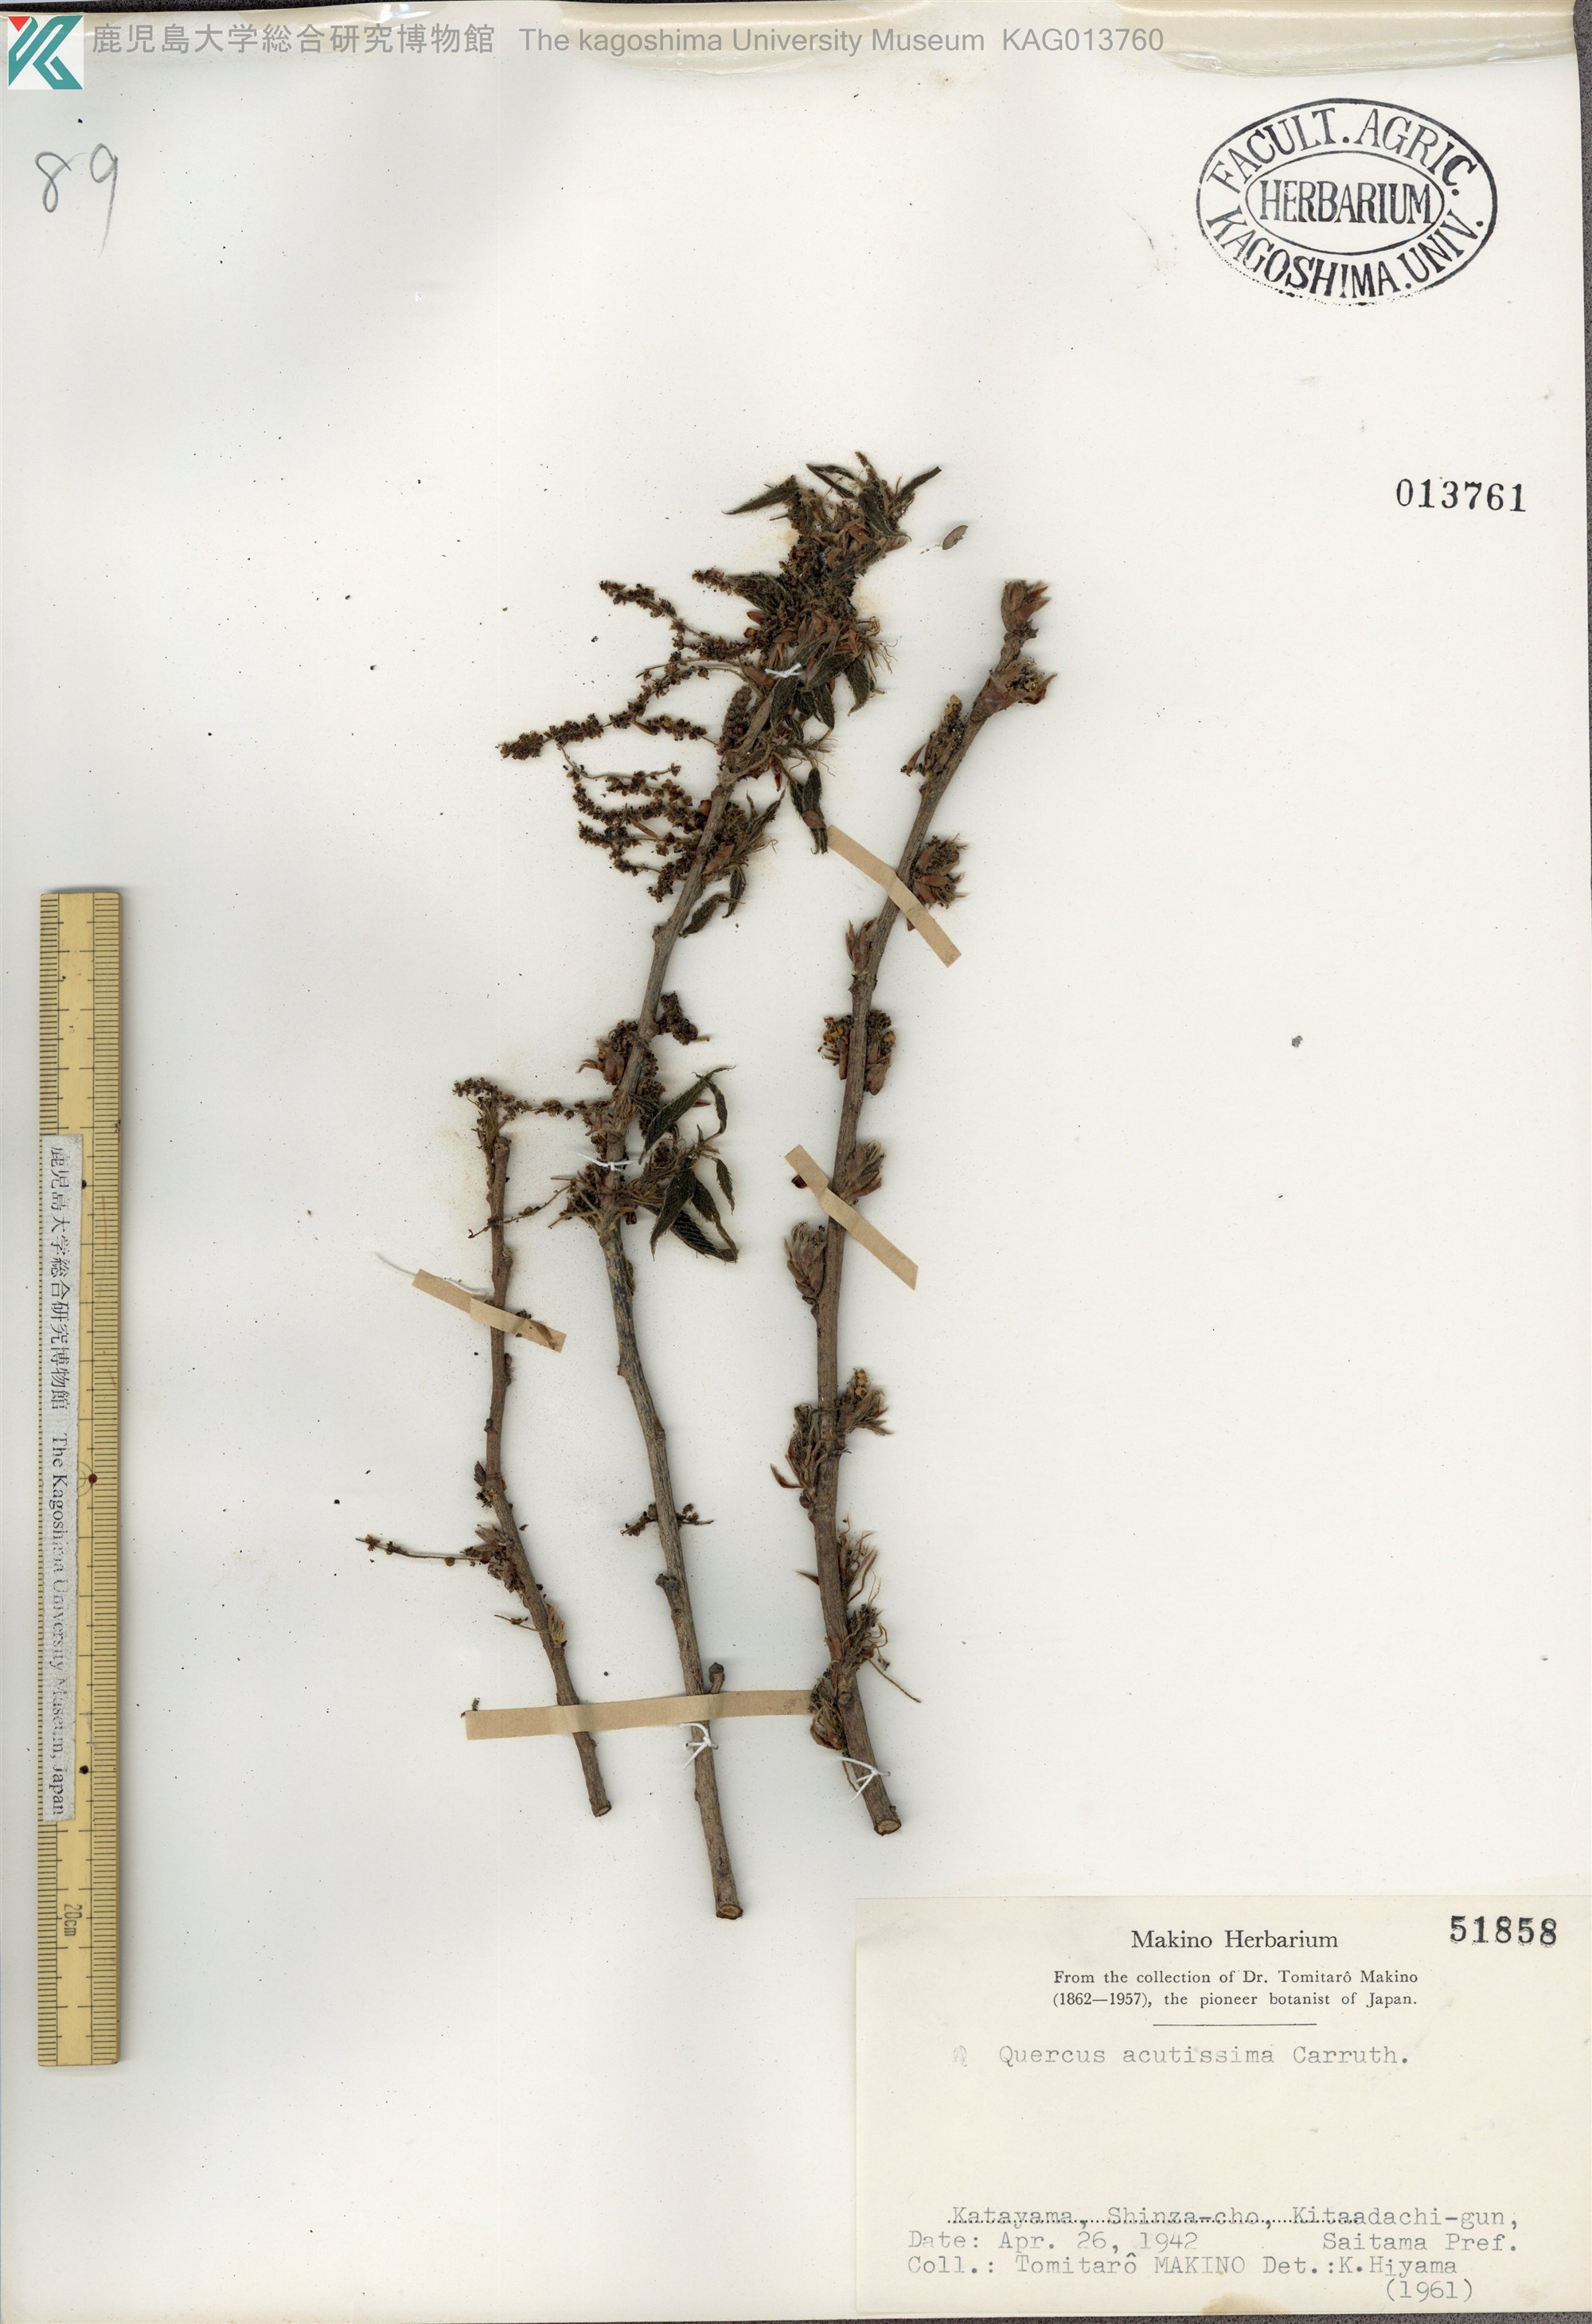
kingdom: Plantae
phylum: Tracheophyta
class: Magnoliopsida
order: Fagales
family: Fagaceae
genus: Quercus
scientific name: Quercus acutissima
